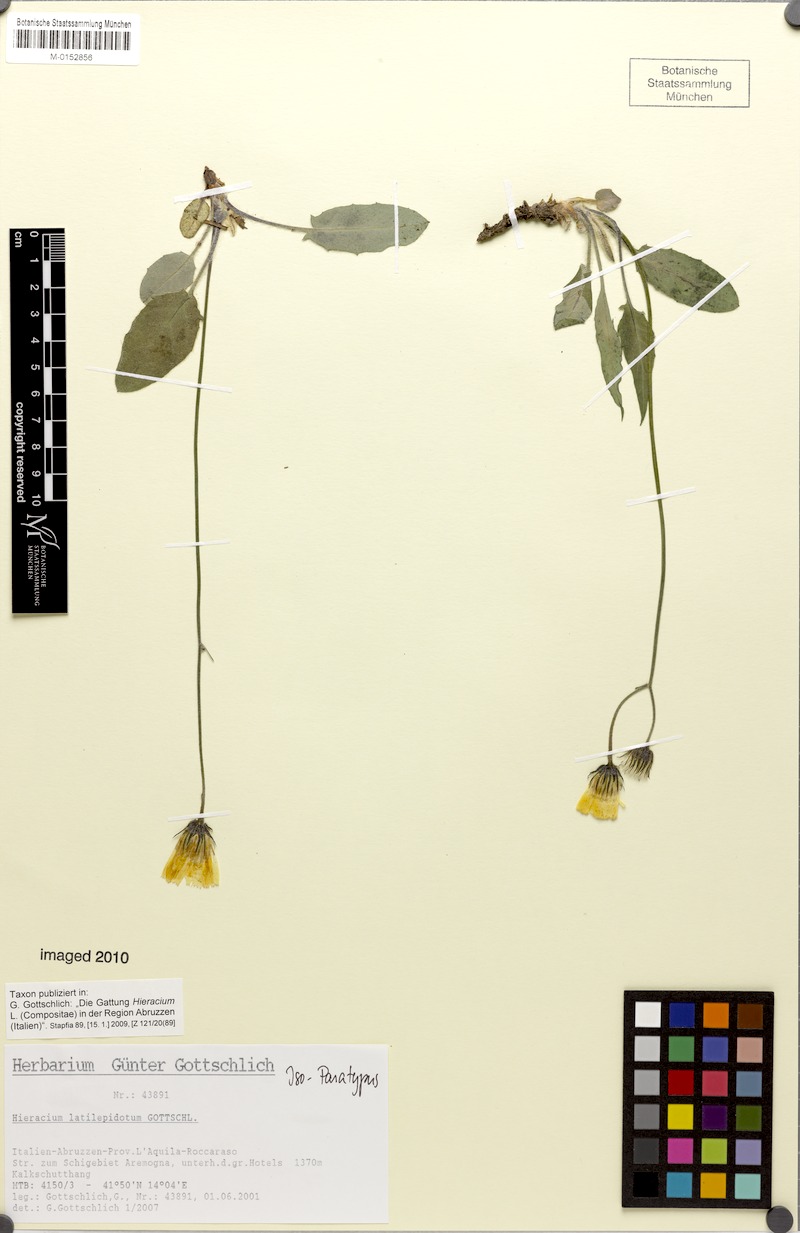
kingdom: Plantae
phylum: Tracheophyta
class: Magnoliopsida
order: Asterales
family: Asteraceae
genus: Hieracium
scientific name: Hieracium latilepidotum
